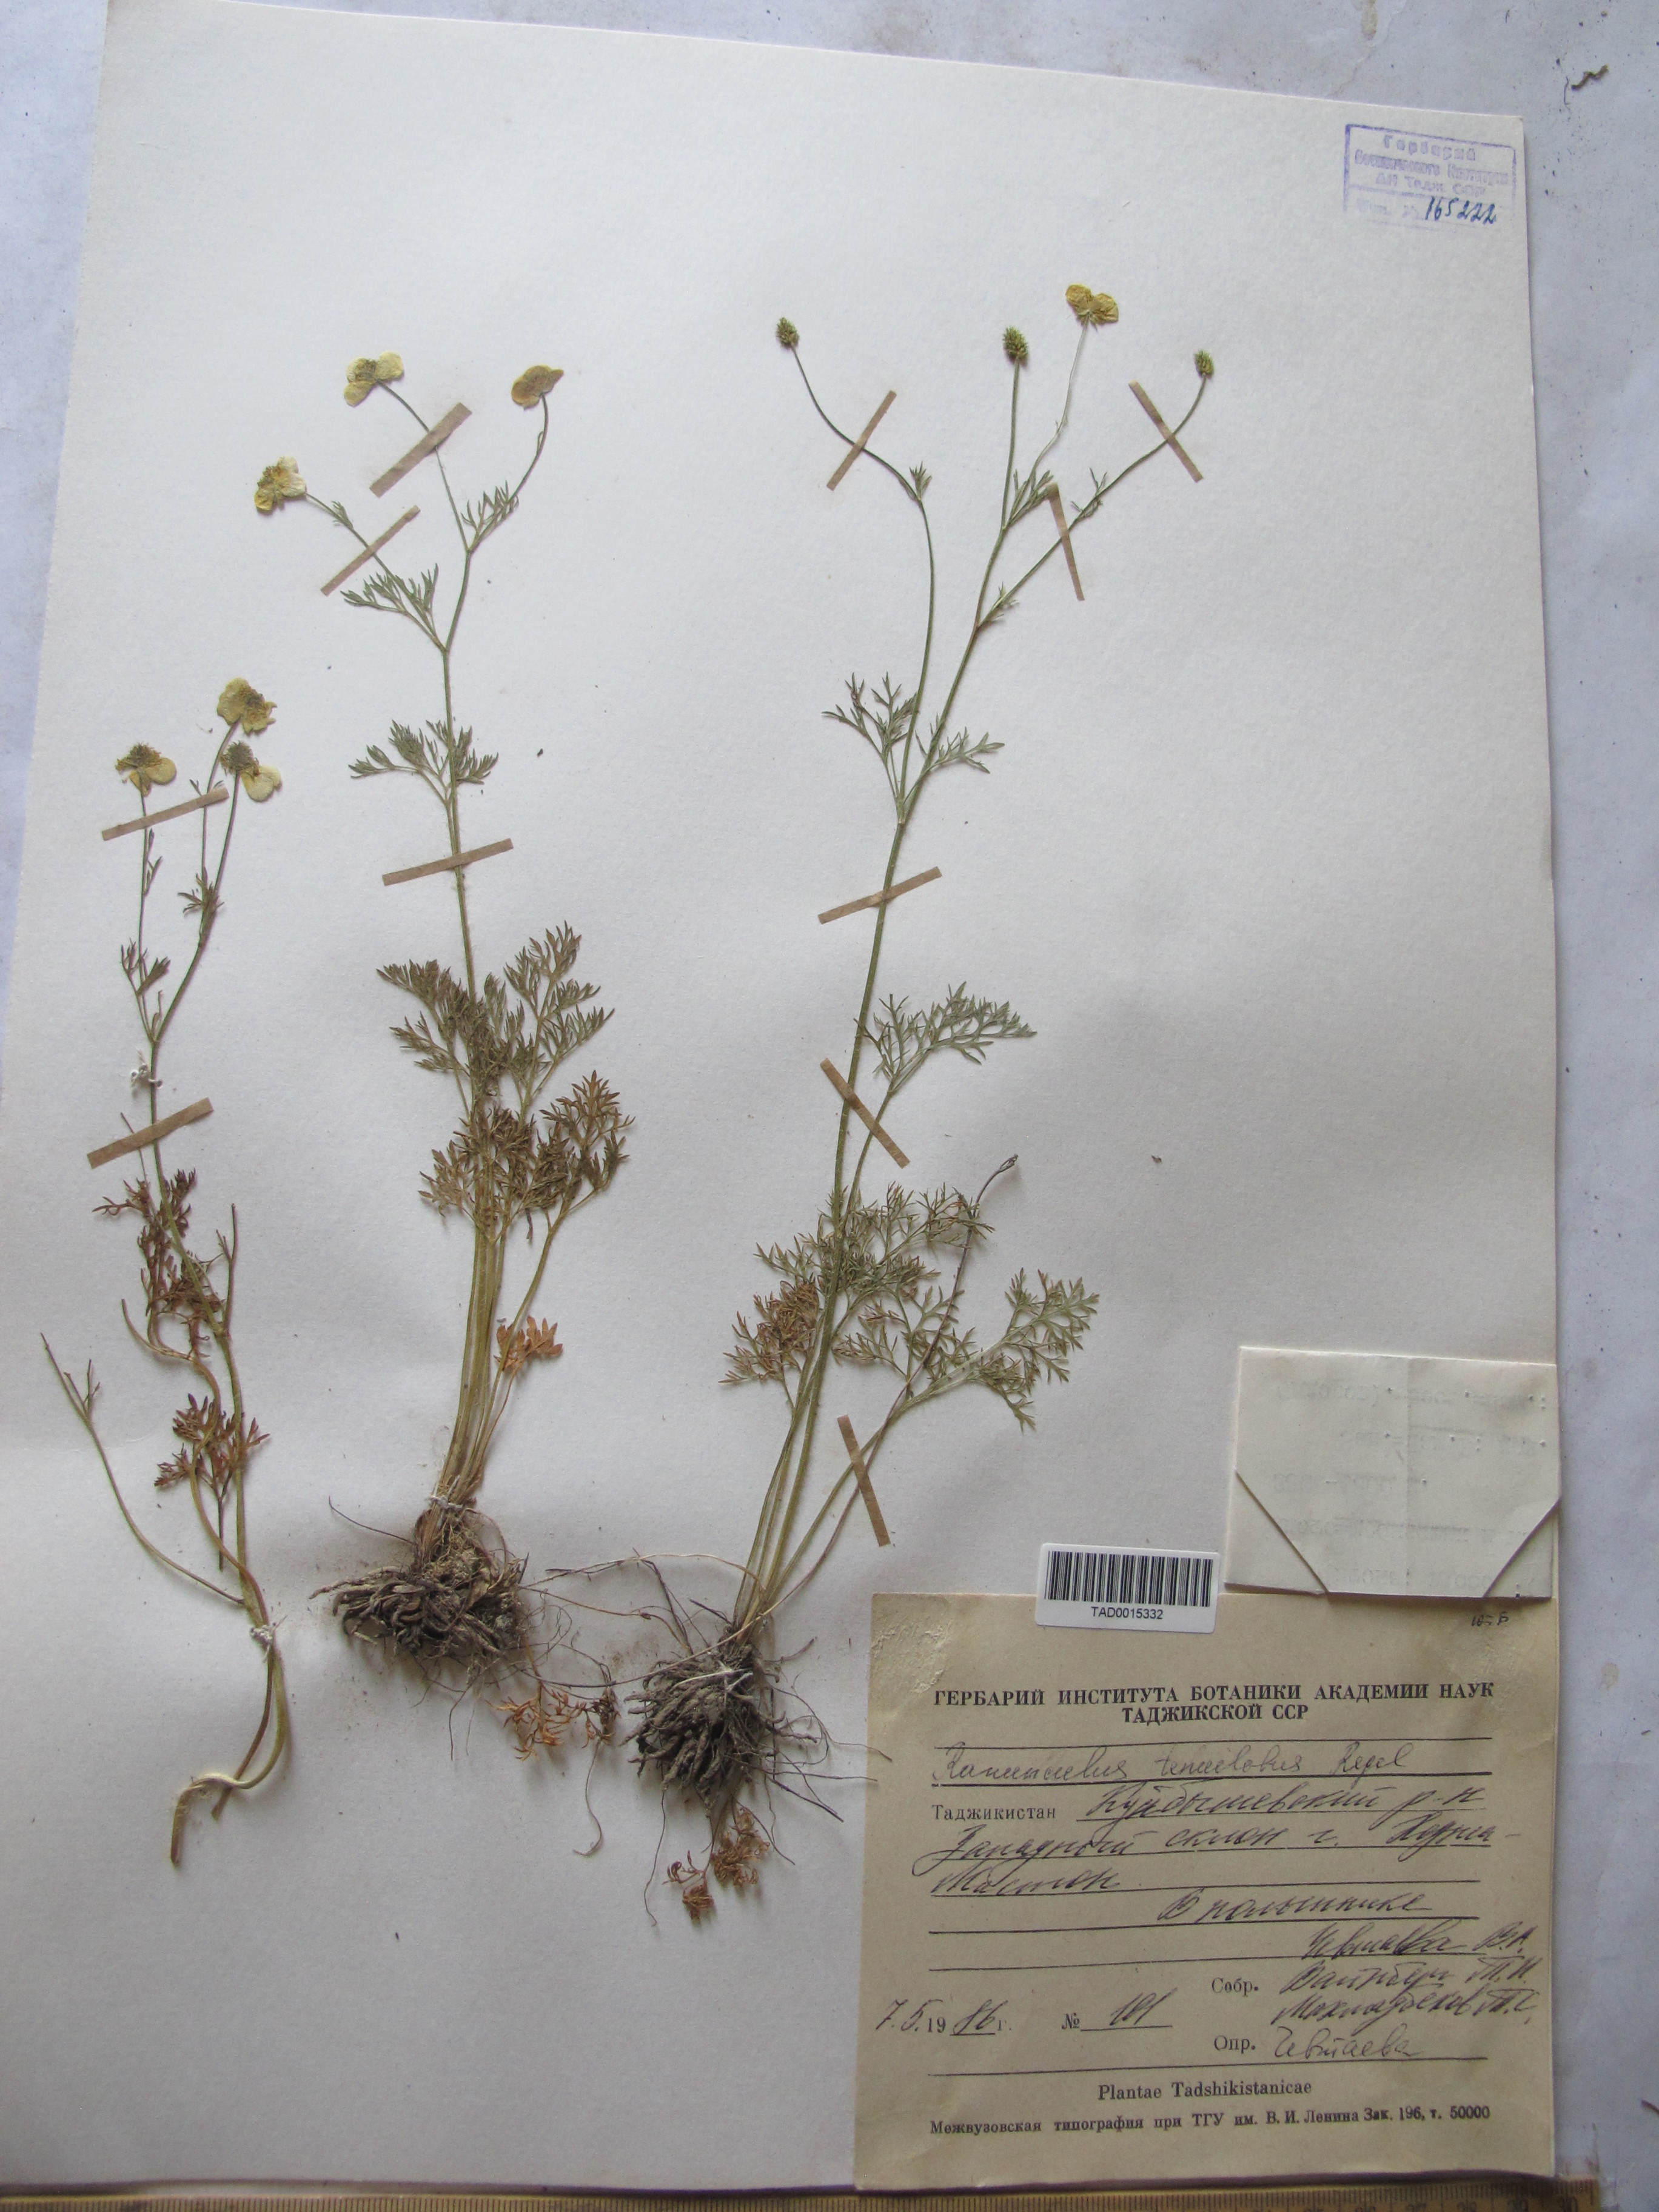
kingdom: Plantae
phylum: Tracheophyta
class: Magnoliopsida
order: Ranunculales
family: Ranunculaceae
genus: Ranunculus
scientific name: Ranunculus tenuilobus
